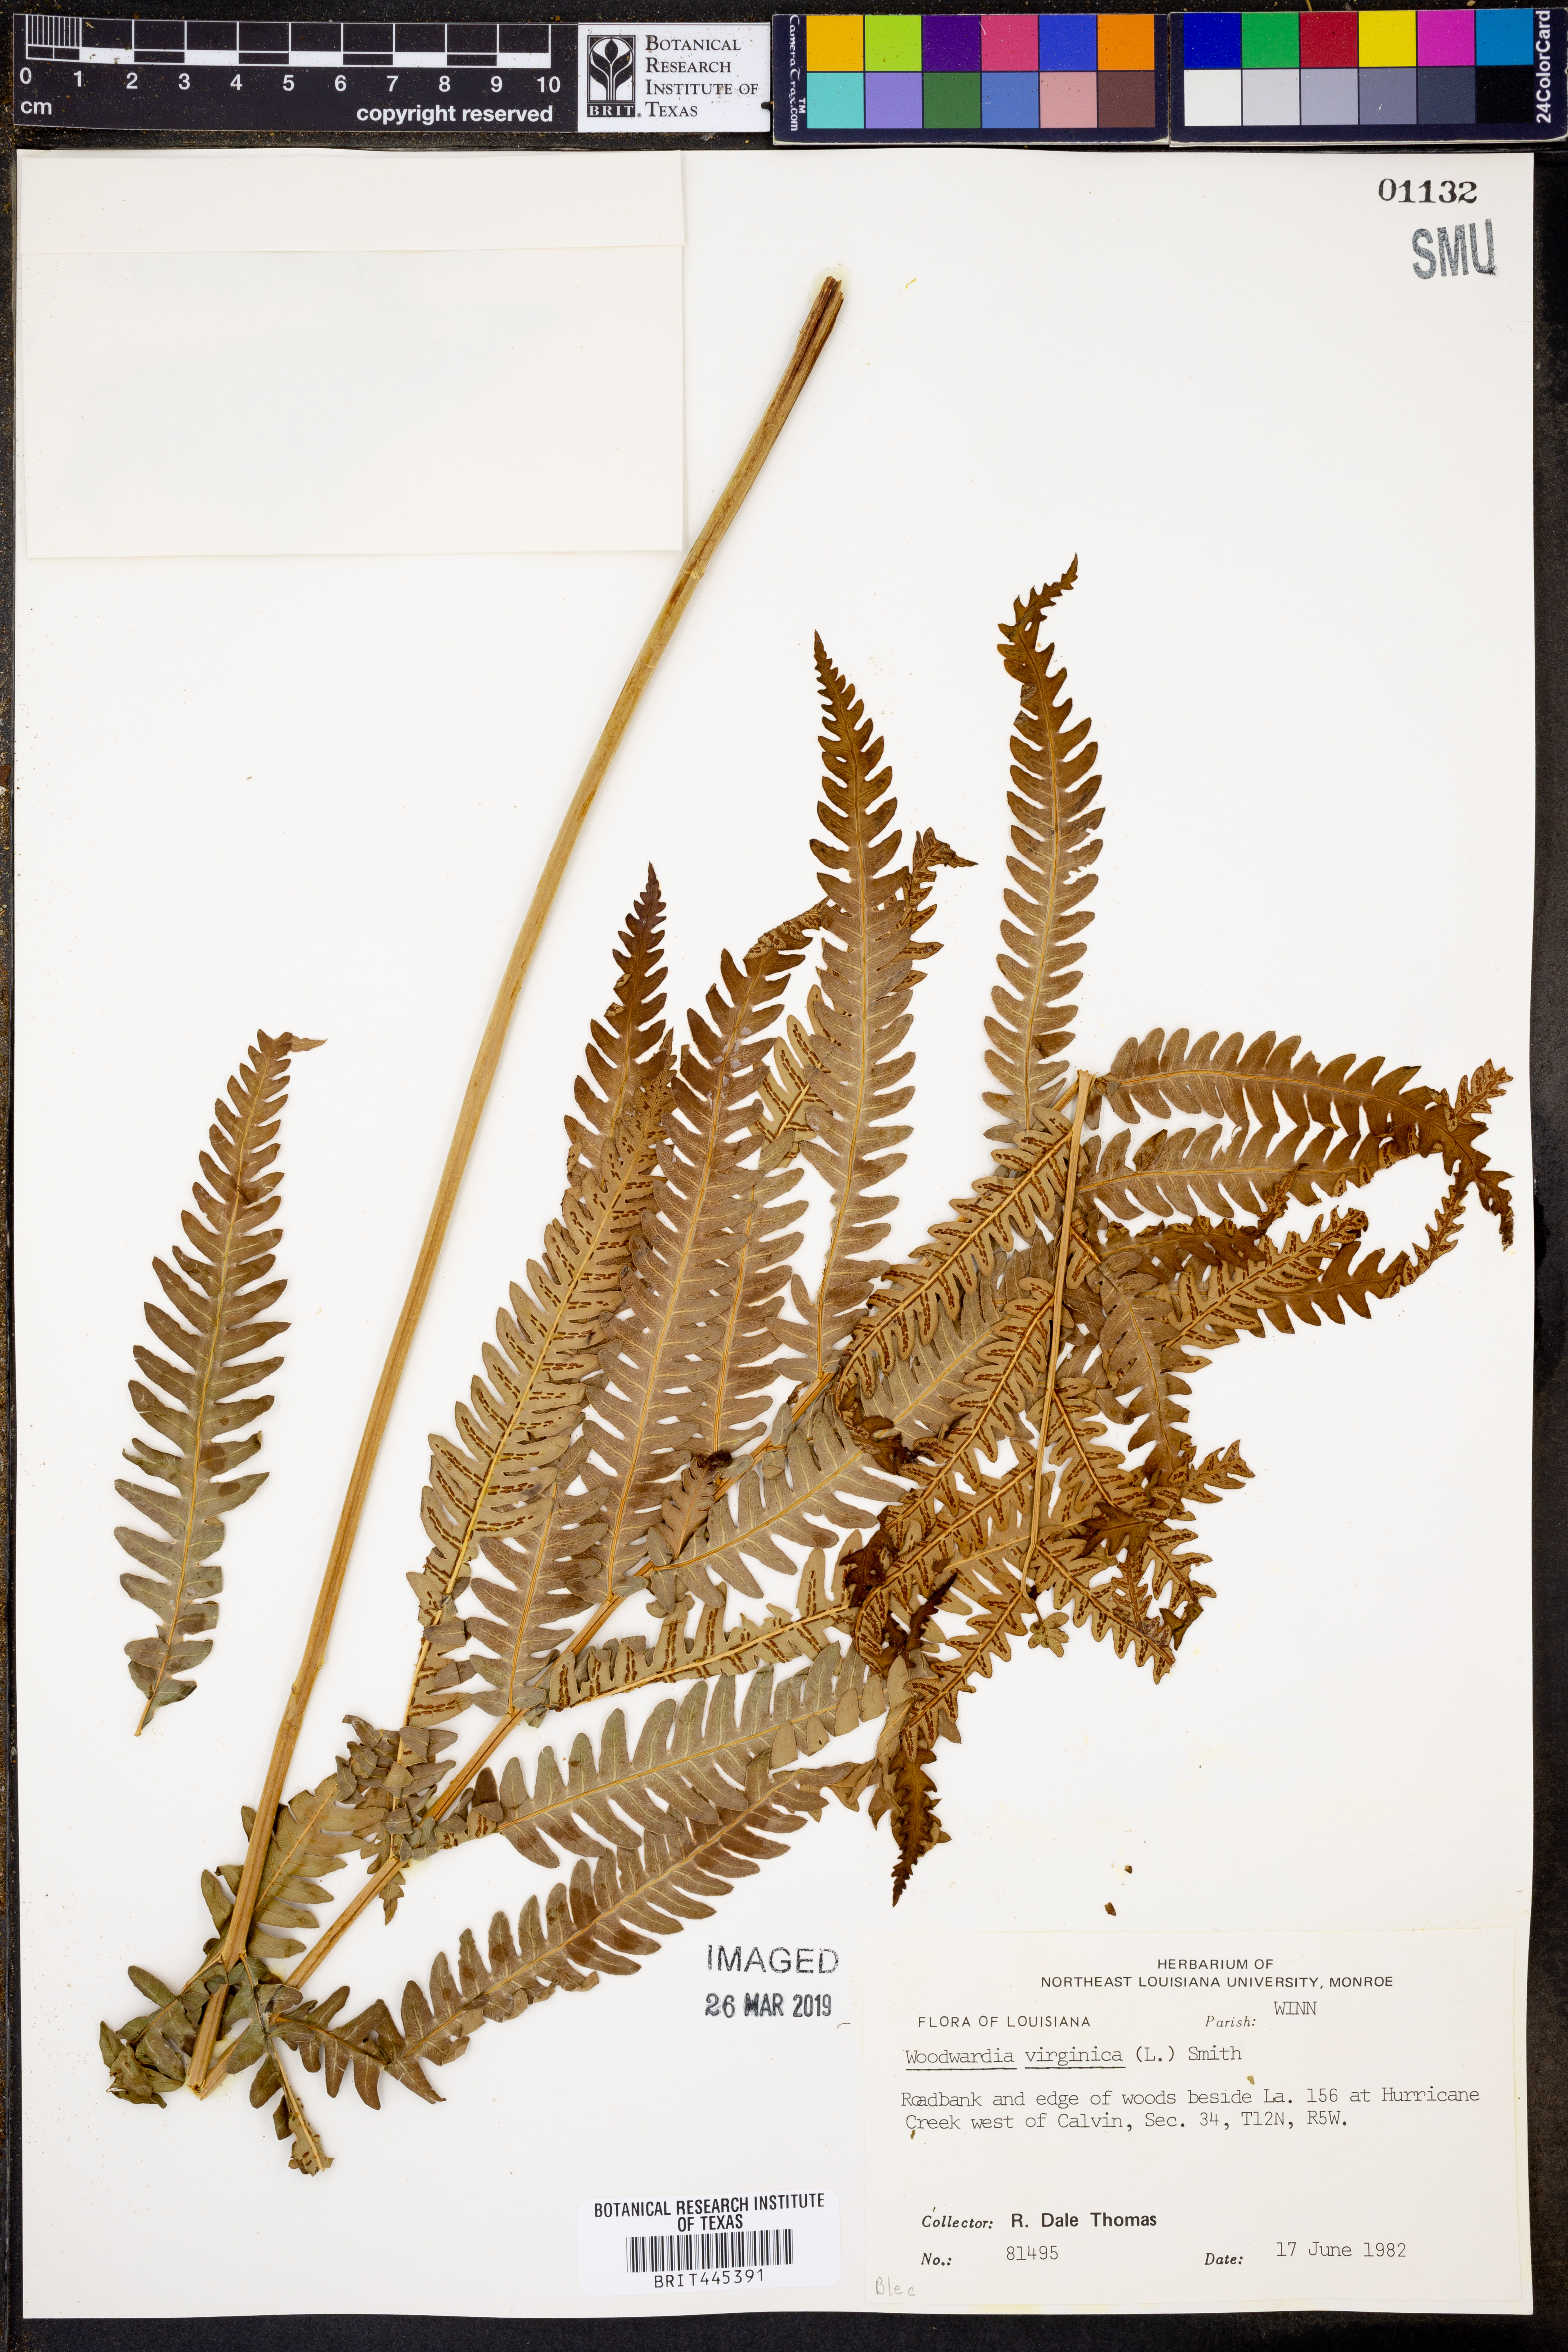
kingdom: Plantae
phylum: Tracheophyta
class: Polypodiopsida
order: Polypodiales
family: Blechnaceae
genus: Anchistea
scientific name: Anchistea virginica
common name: Virginia chain fern
